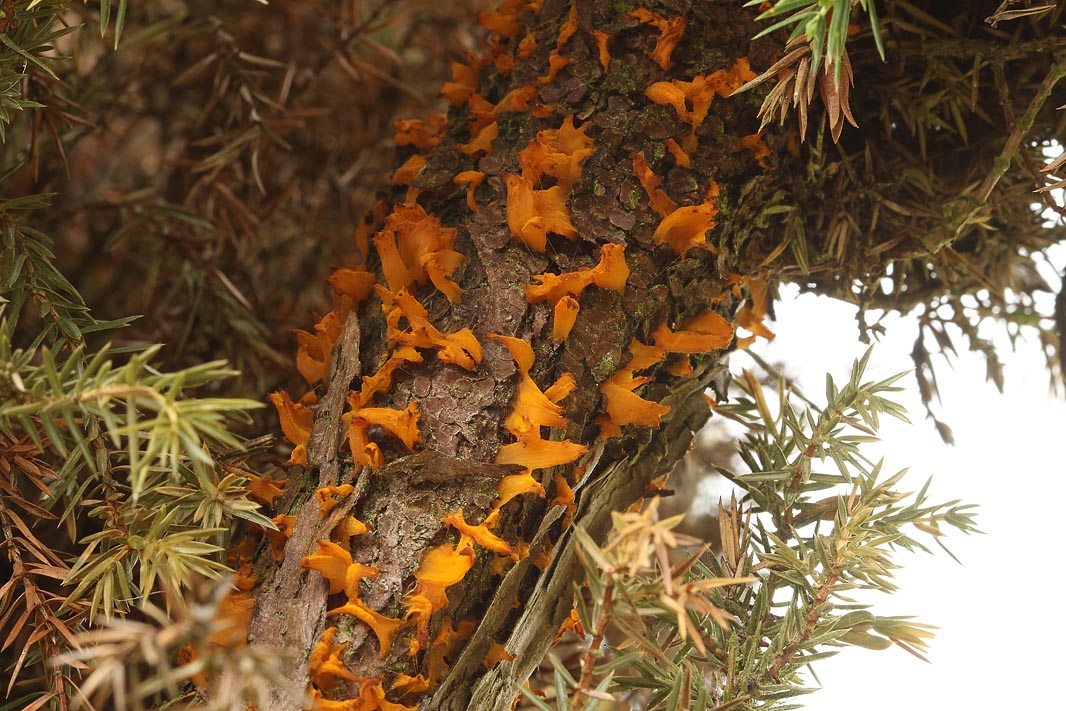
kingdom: Fungi
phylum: Basidiomycota
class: Pucciniomycetes
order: Pucciniales
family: Gymnosporangiaceae
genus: Gymnosporangium
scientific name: Gymnosporangium clavariiforme
